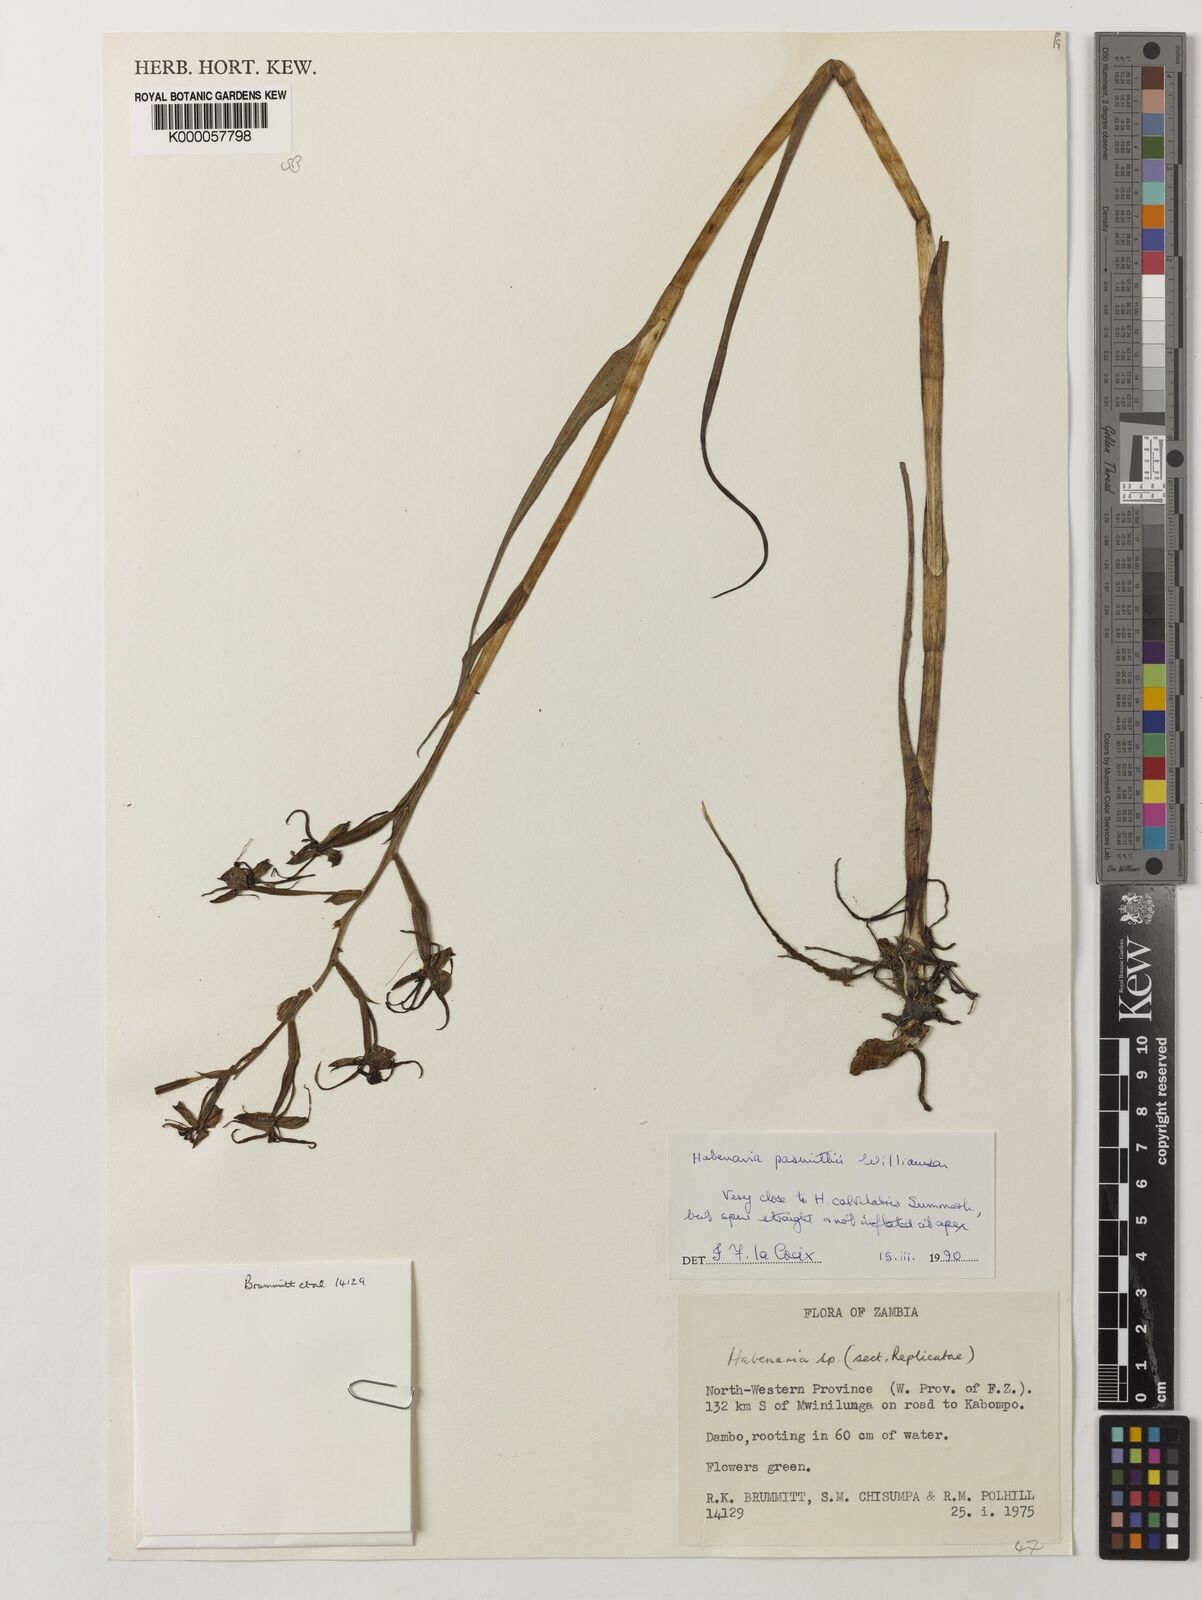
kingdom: Plantae
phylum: Tracheophyta
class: Liliopsida
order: Asparagales
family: Orchidaceae
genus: Habenaria
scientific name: Habenaria pasmithii
